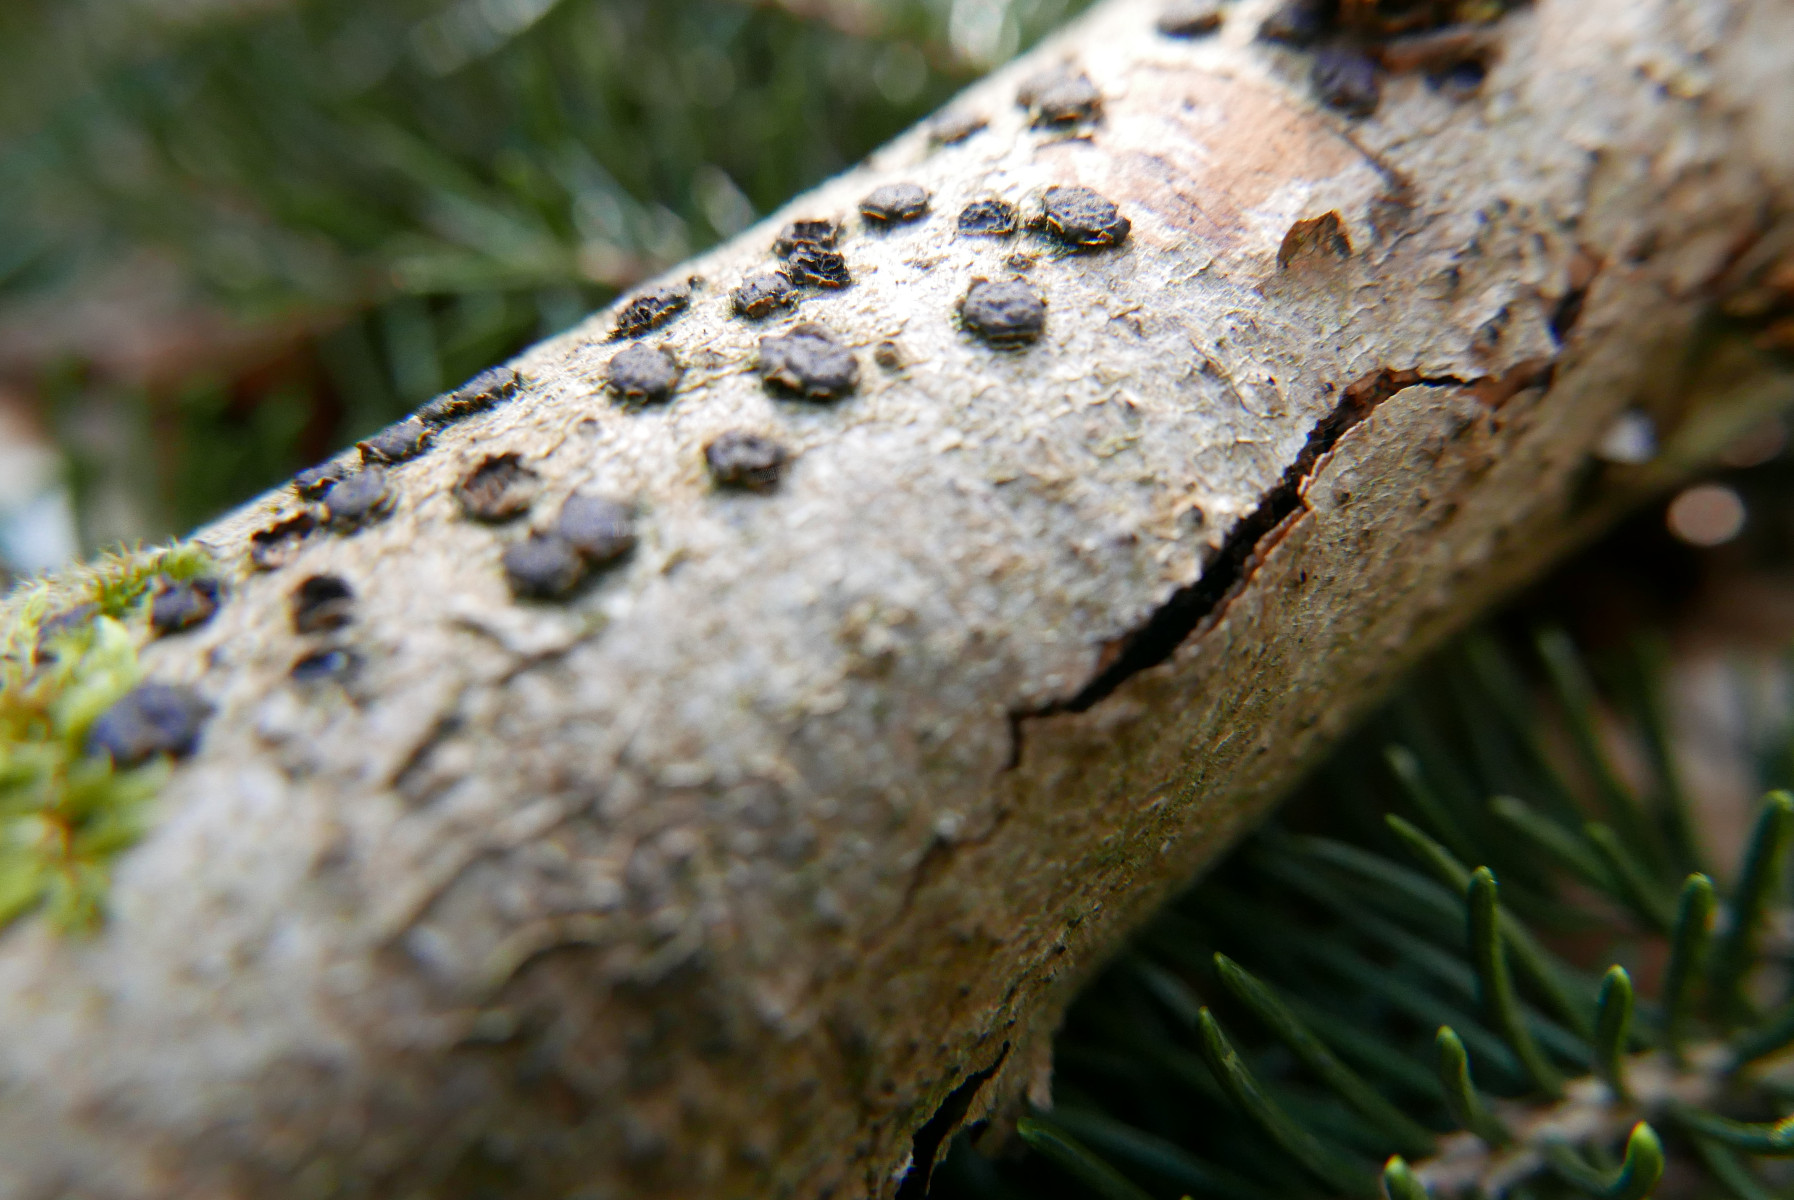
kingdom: Fungi
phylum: Ascomycota
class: Sordariomycetes
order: Xylariales
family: Diatrypaceae
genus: Diatrype
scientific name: Diatrype disciformis
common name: kant-kulskorpe
